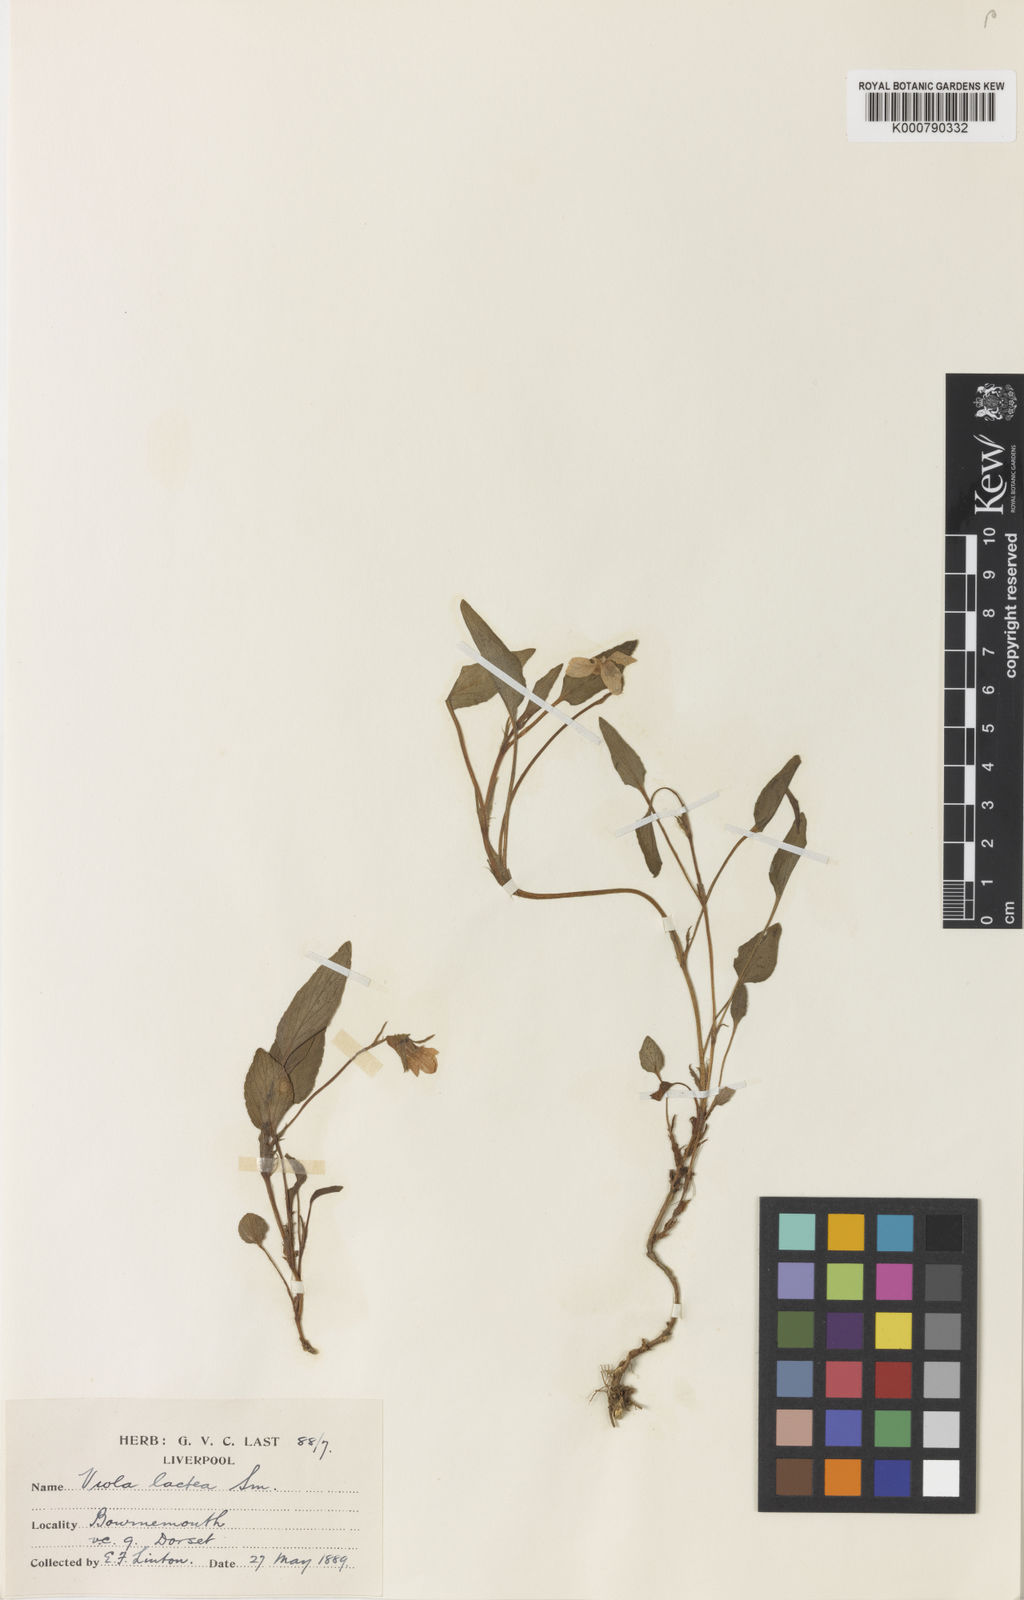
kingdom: Plantae
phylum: Tracheophyta
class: Magnoliopsida
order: Malpighiales
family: Violaceae
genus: Viola
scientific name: Viola lactea
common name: Pale dog-violet
